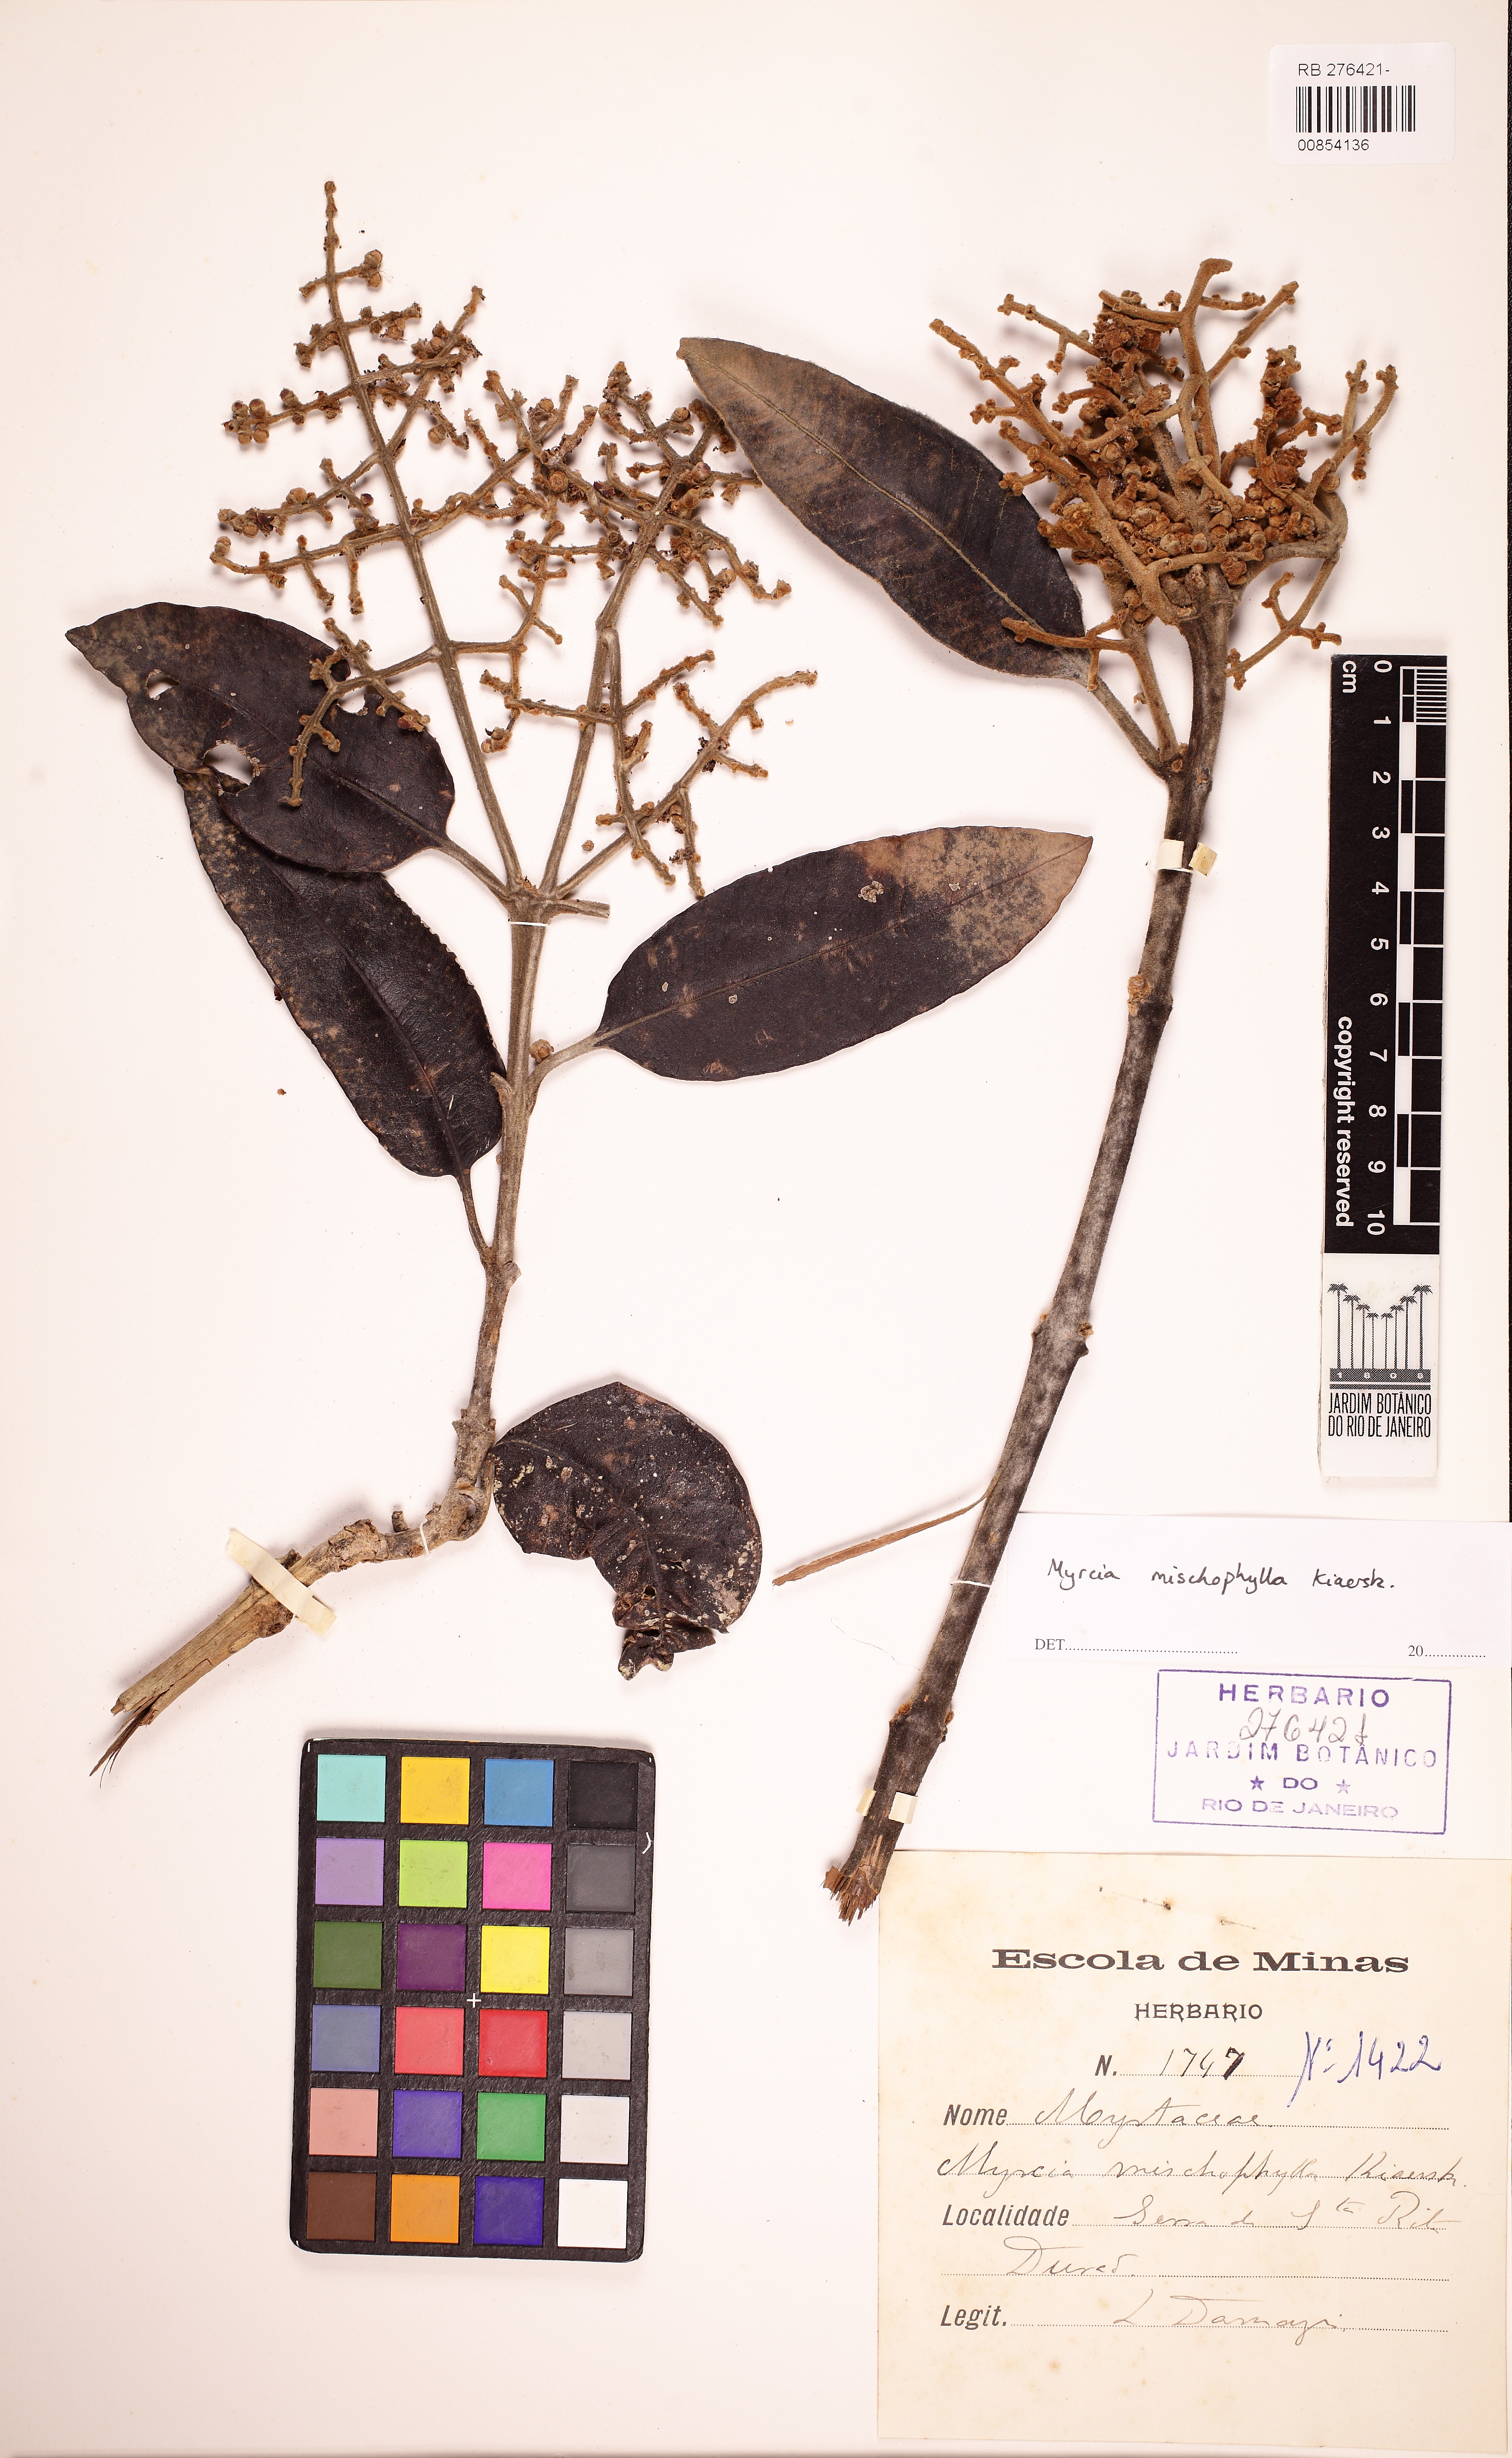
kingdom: Plantae
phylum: Tracheophyta
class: Magnoliopsida
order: Myrtales
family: Myrtaceae
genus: Myrcia
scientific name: Myrcia mischophylla
